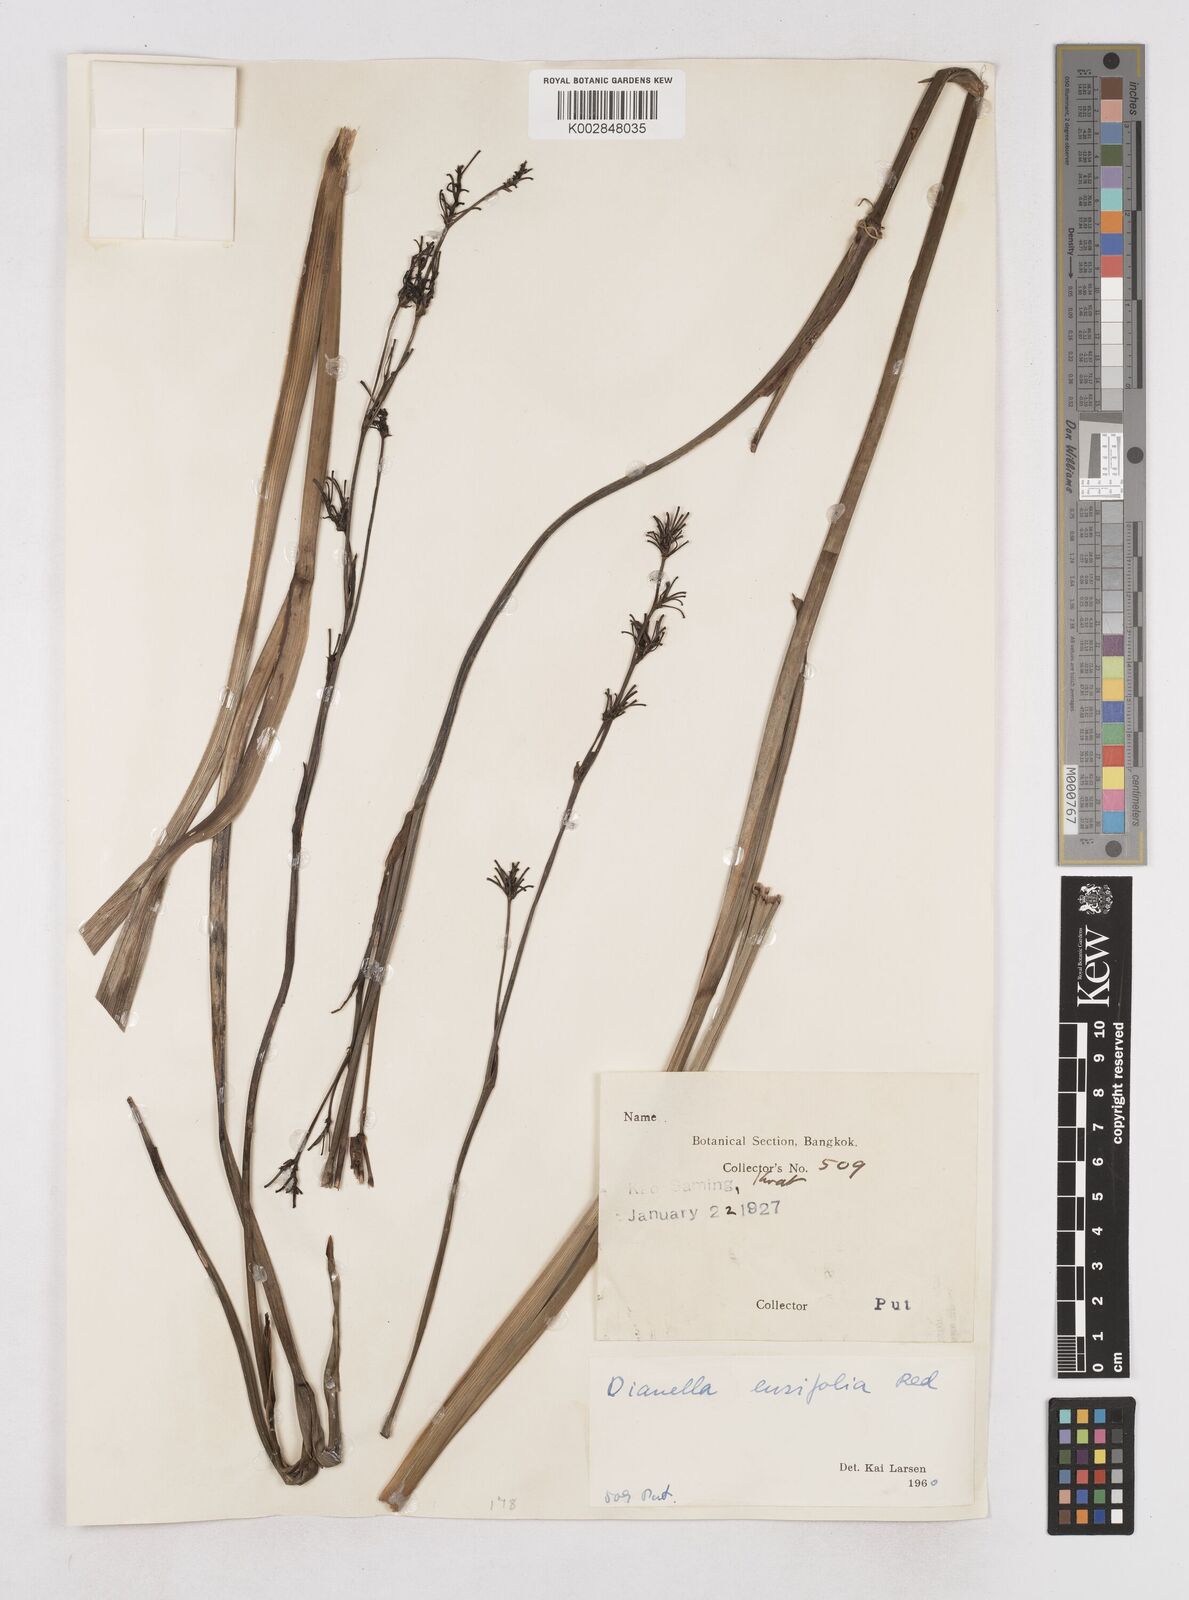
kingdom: Plantae
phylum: Tracheophyta
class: Liliopsida
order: Asparagales
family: Asphodelaceae
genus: Dianella
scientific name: Dianella ensifolia
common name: New zealand lilyplant
